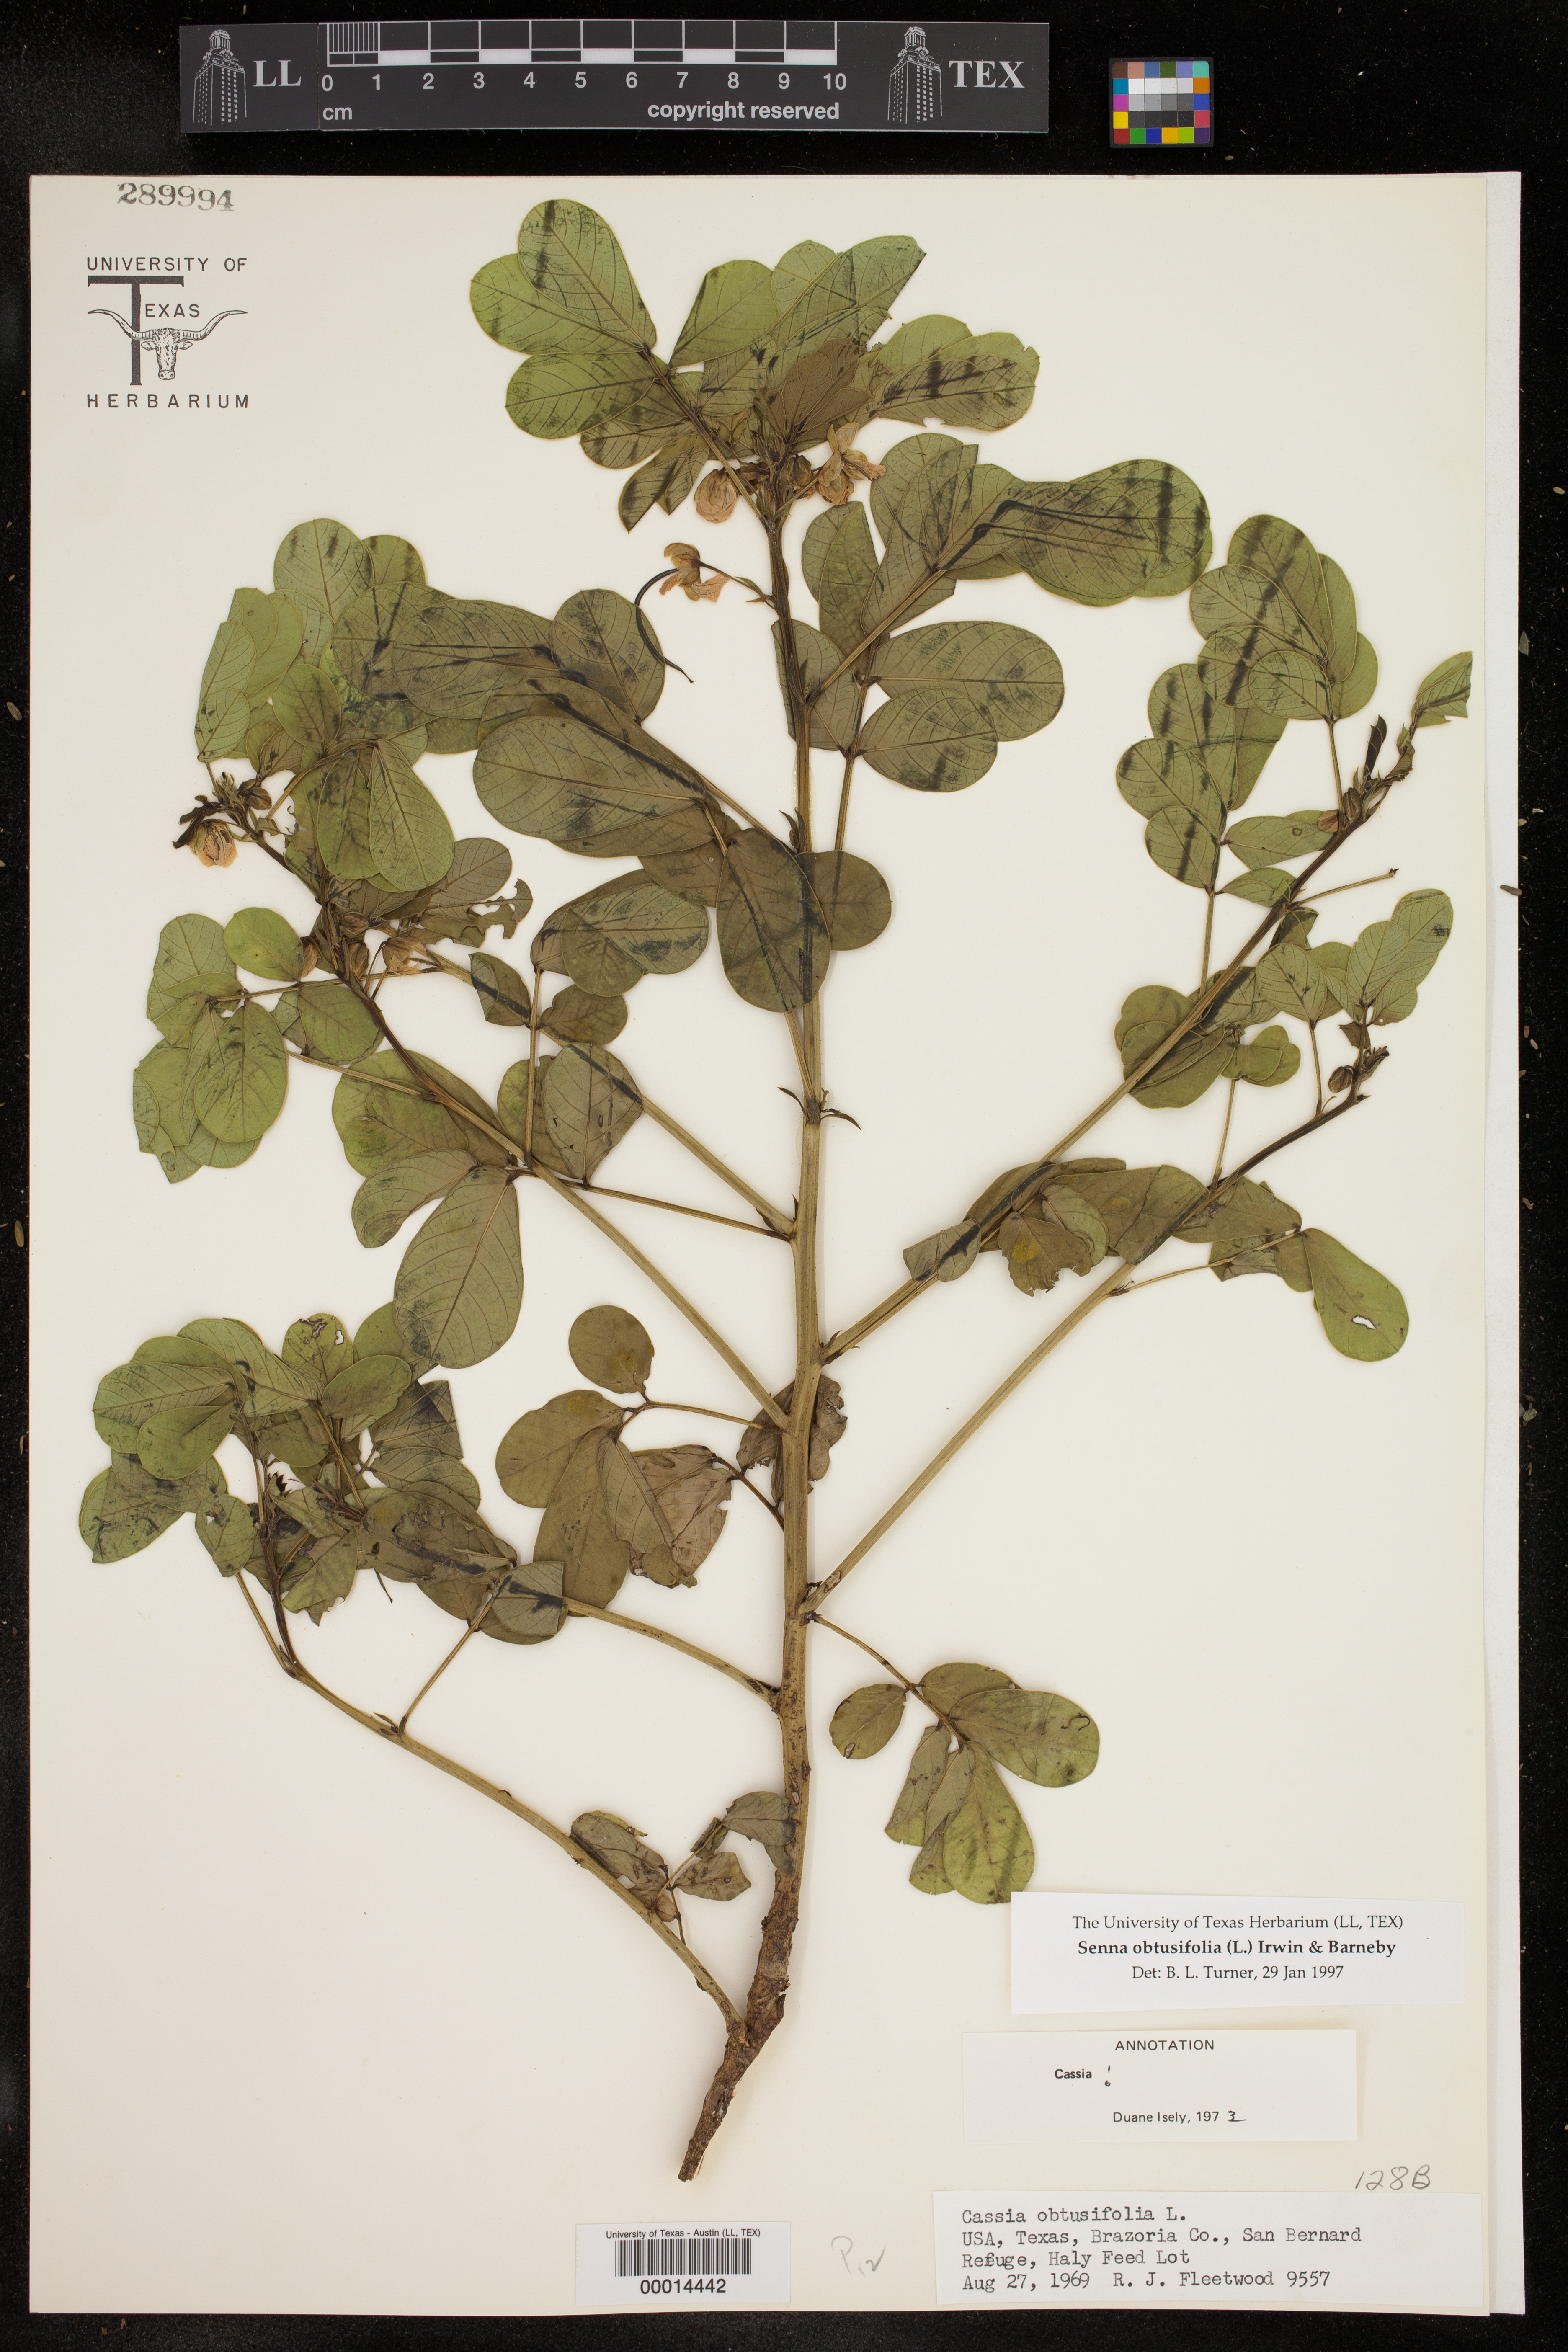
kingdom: Plantae
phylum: Tracheophyta
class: Magnoliopsida
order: Fabales
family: Fabaceae
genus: Senna
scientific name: Senna obtusifolia
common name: Java-bean
